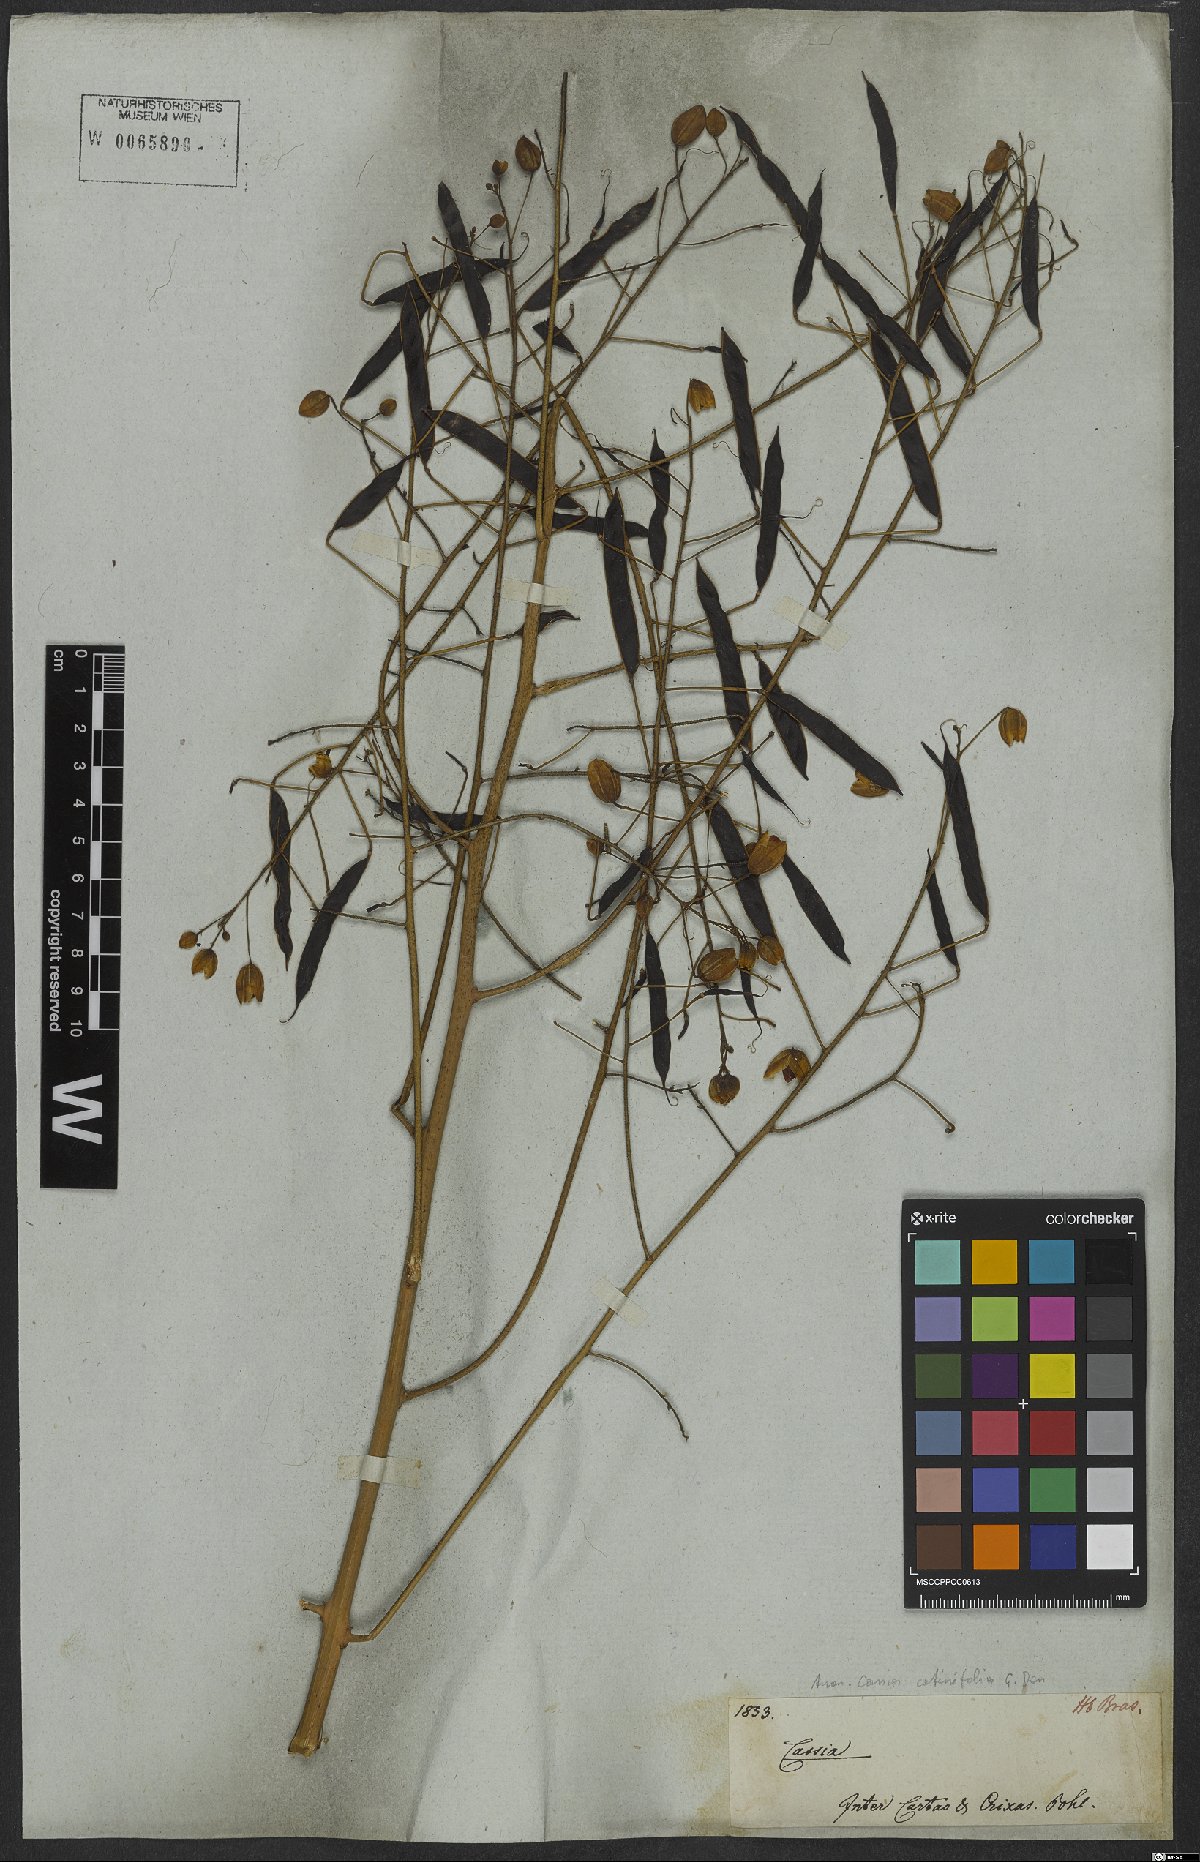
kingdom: Plantae
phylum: Tracheophyta
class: Magnoliopsida
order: Fabales
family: Fabaceae
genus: Chamaecrista
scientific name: Chamaecrista cotinifolia
